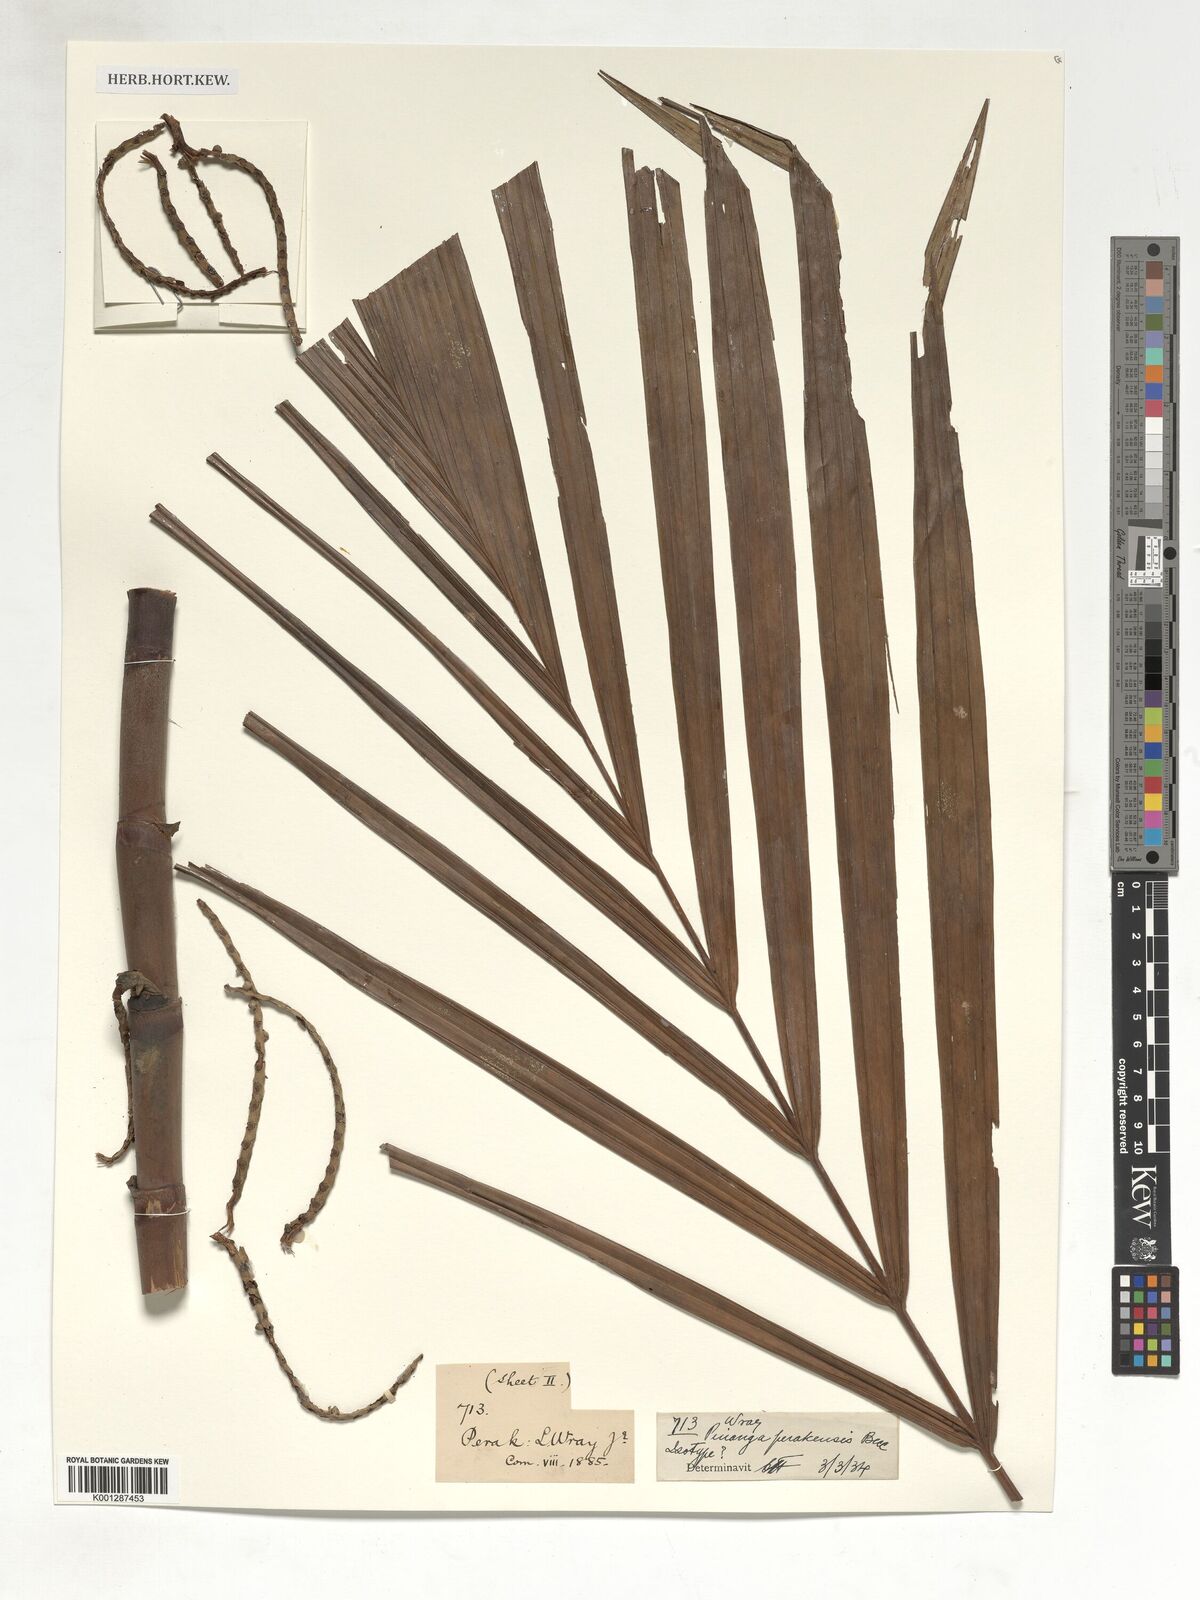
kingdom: Plantae
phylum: Tracheophyta
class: Liliopsida
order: Arecales
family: Arecaceae
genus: Pinanga
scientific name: Pinanga perakensis
